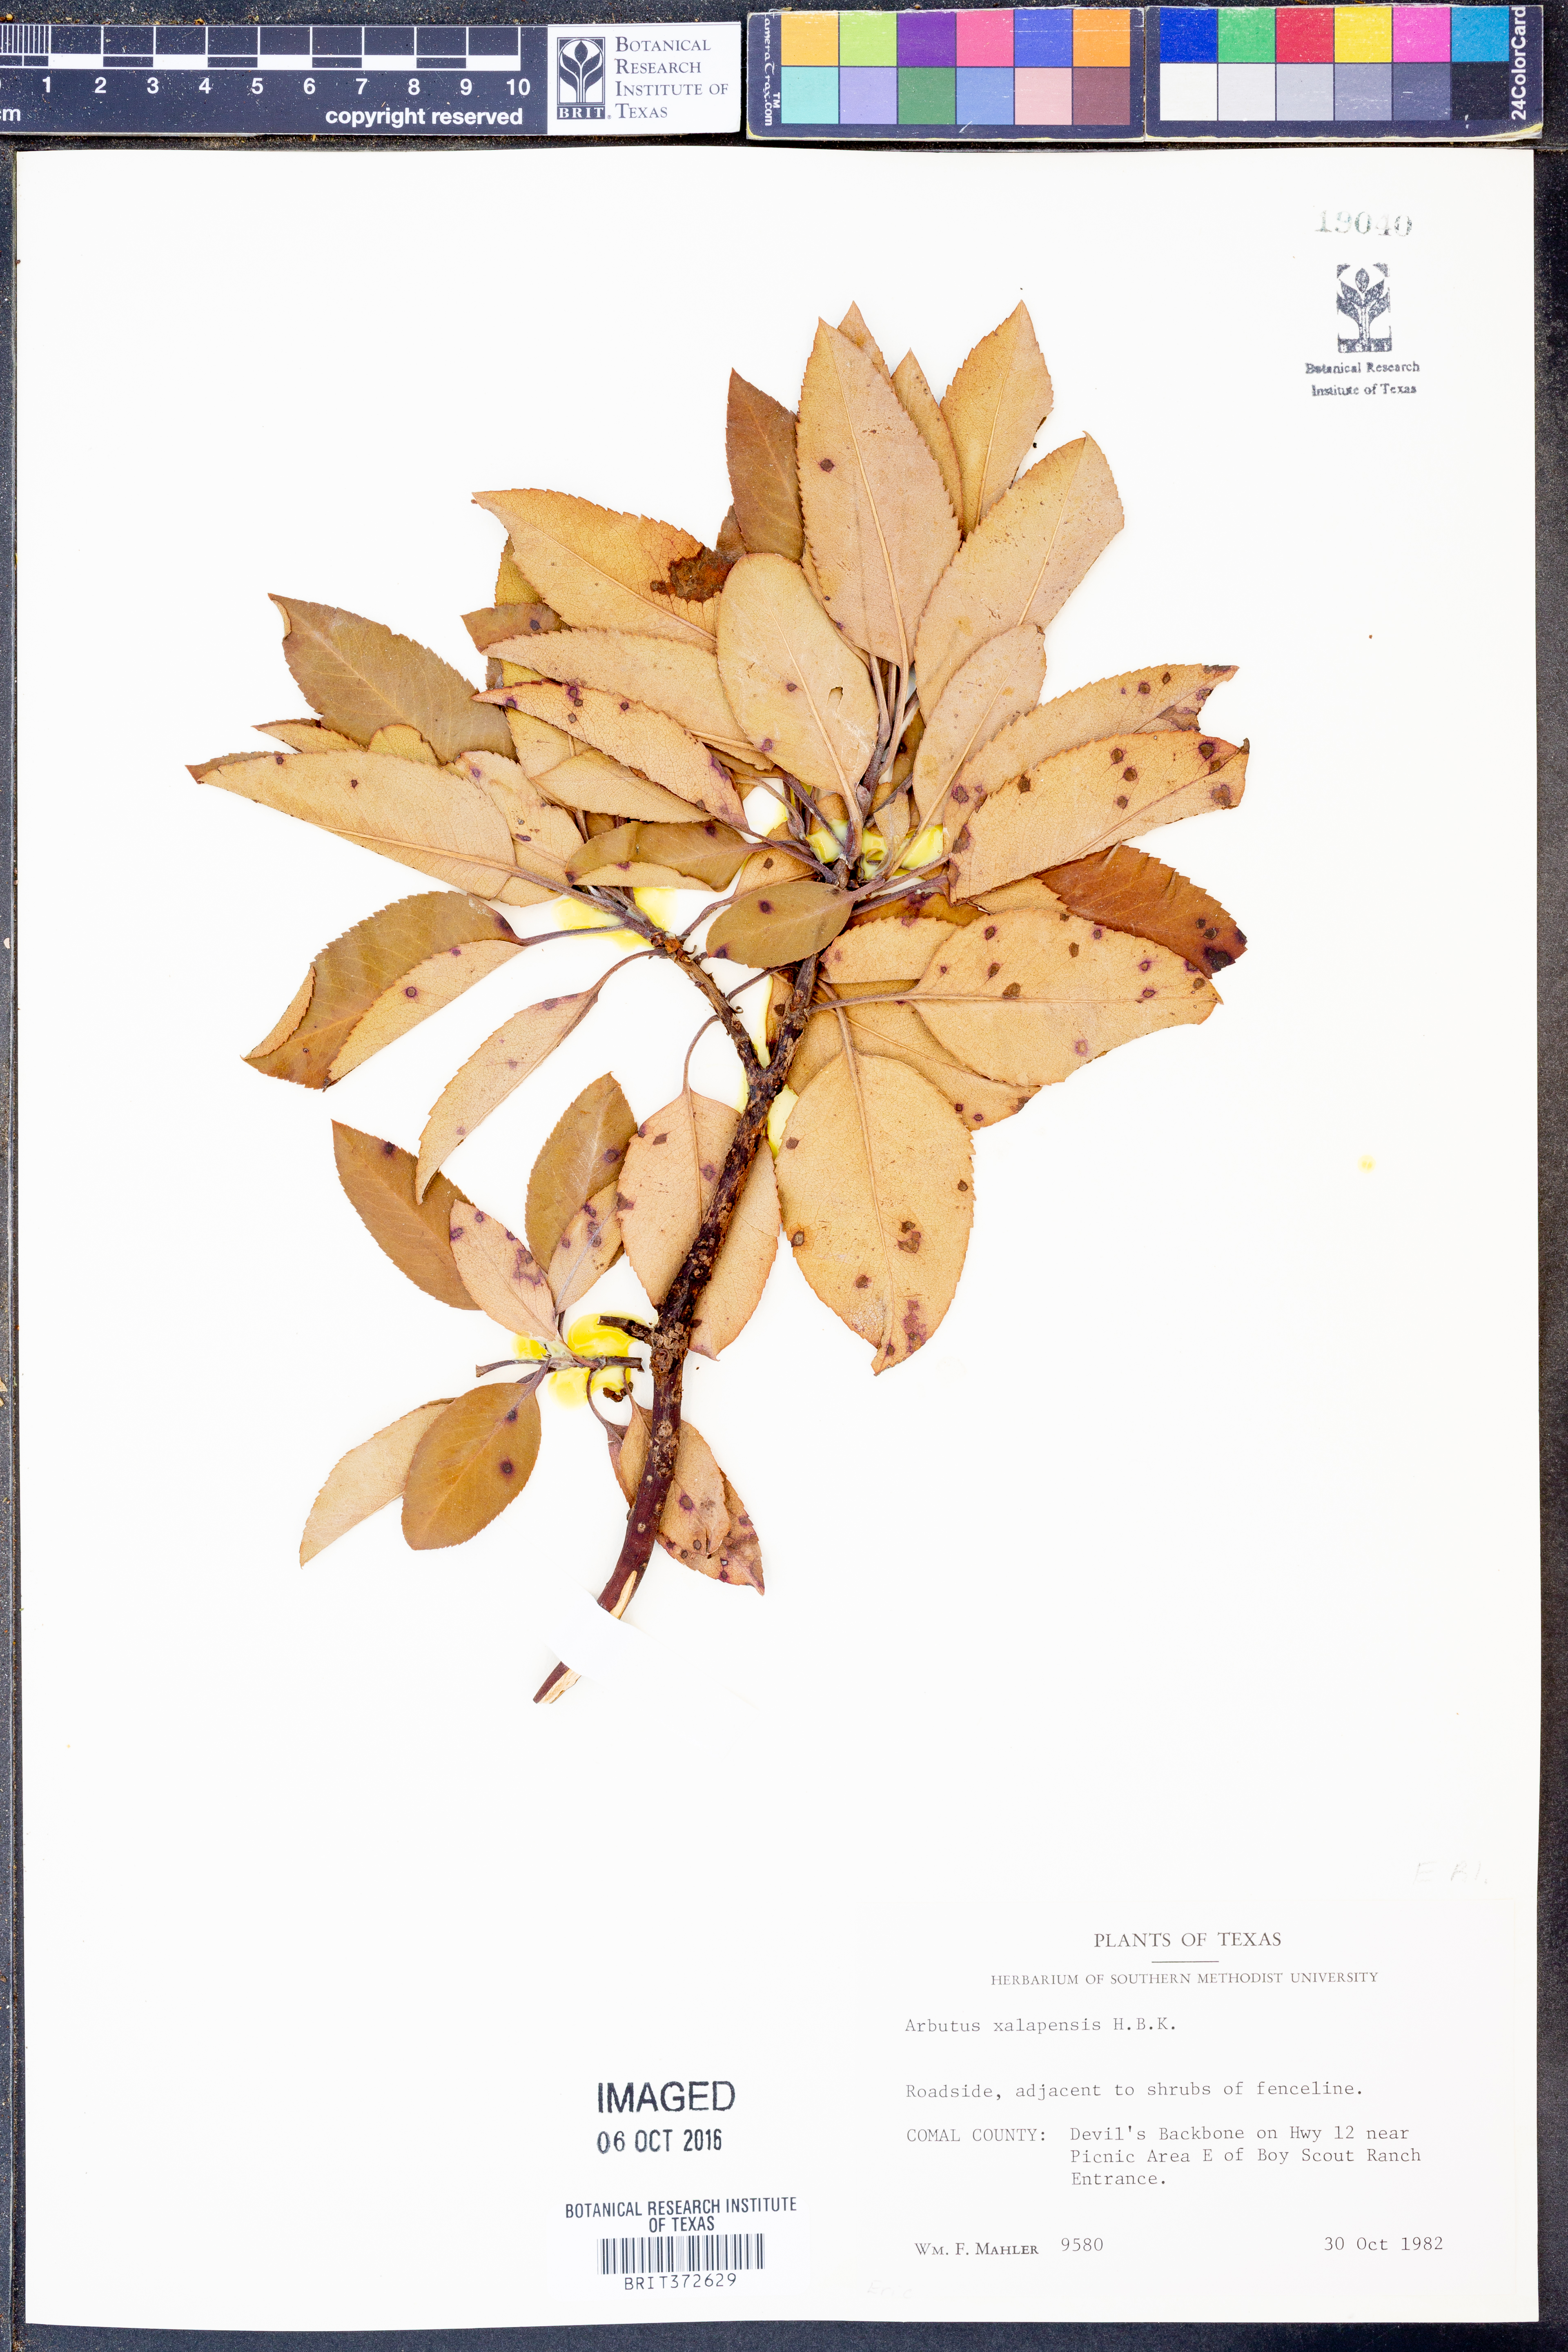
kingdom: Plantae
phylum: Tracheophyta
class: Magnoliopsida
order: Ericales
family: Ericaceae
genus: Arbutus
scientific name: Arbutus xalapensis
